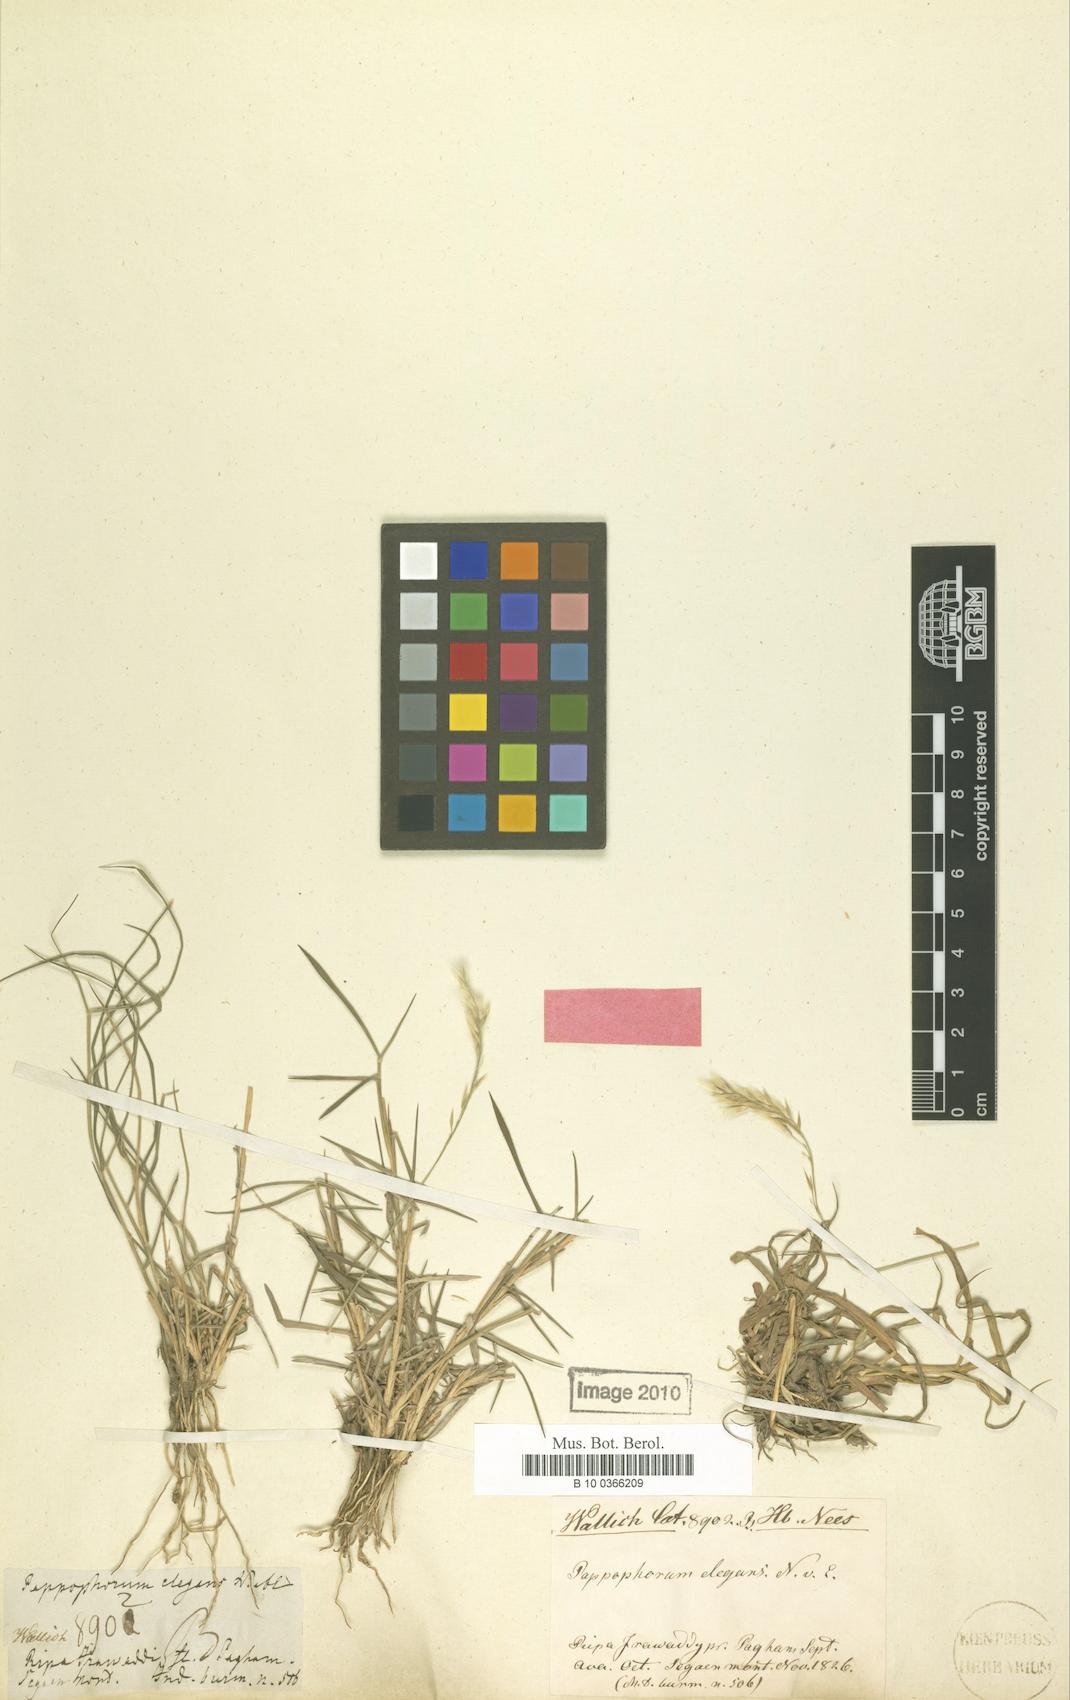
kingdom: Plantae
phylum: Tracheophyta
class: Liliopsida
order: Poales
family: Poaceae
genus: Enneapogon
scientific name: Enneapogon persicus
